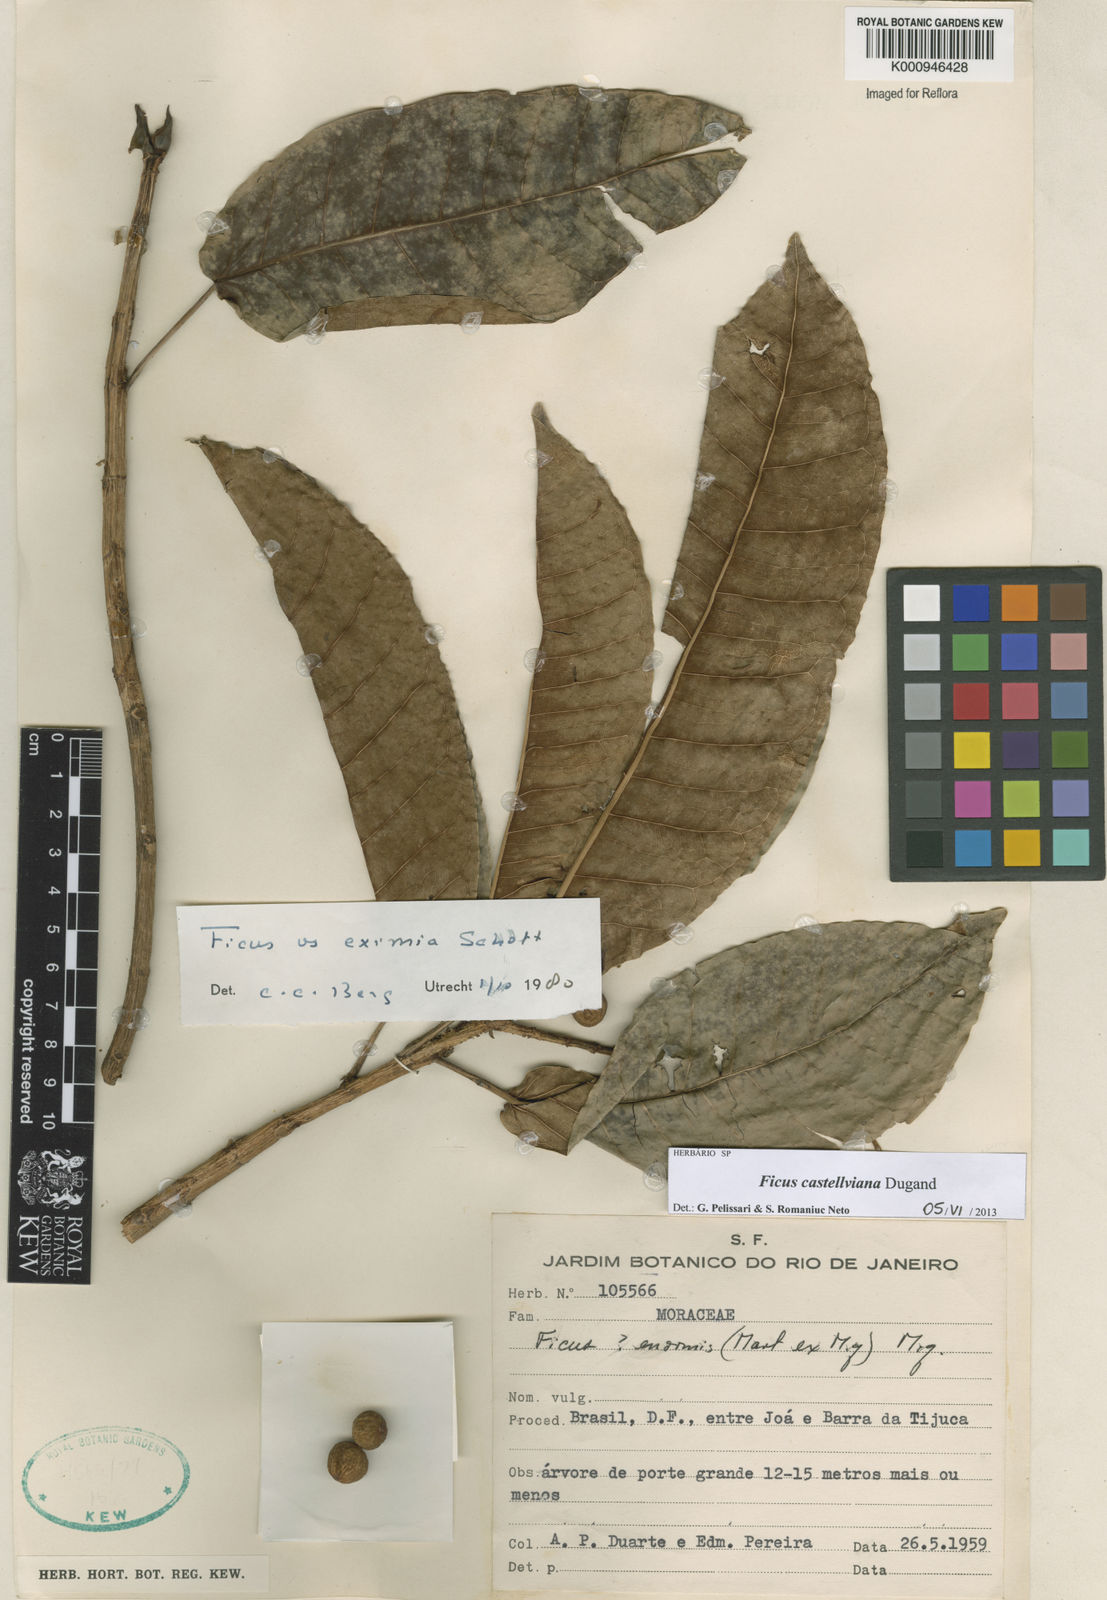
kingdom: Plantae
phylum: Tracheophyta
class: Magnoliopsida
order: Rosales
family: Moraceae
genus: Ficus
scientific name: Ficus castellviana
